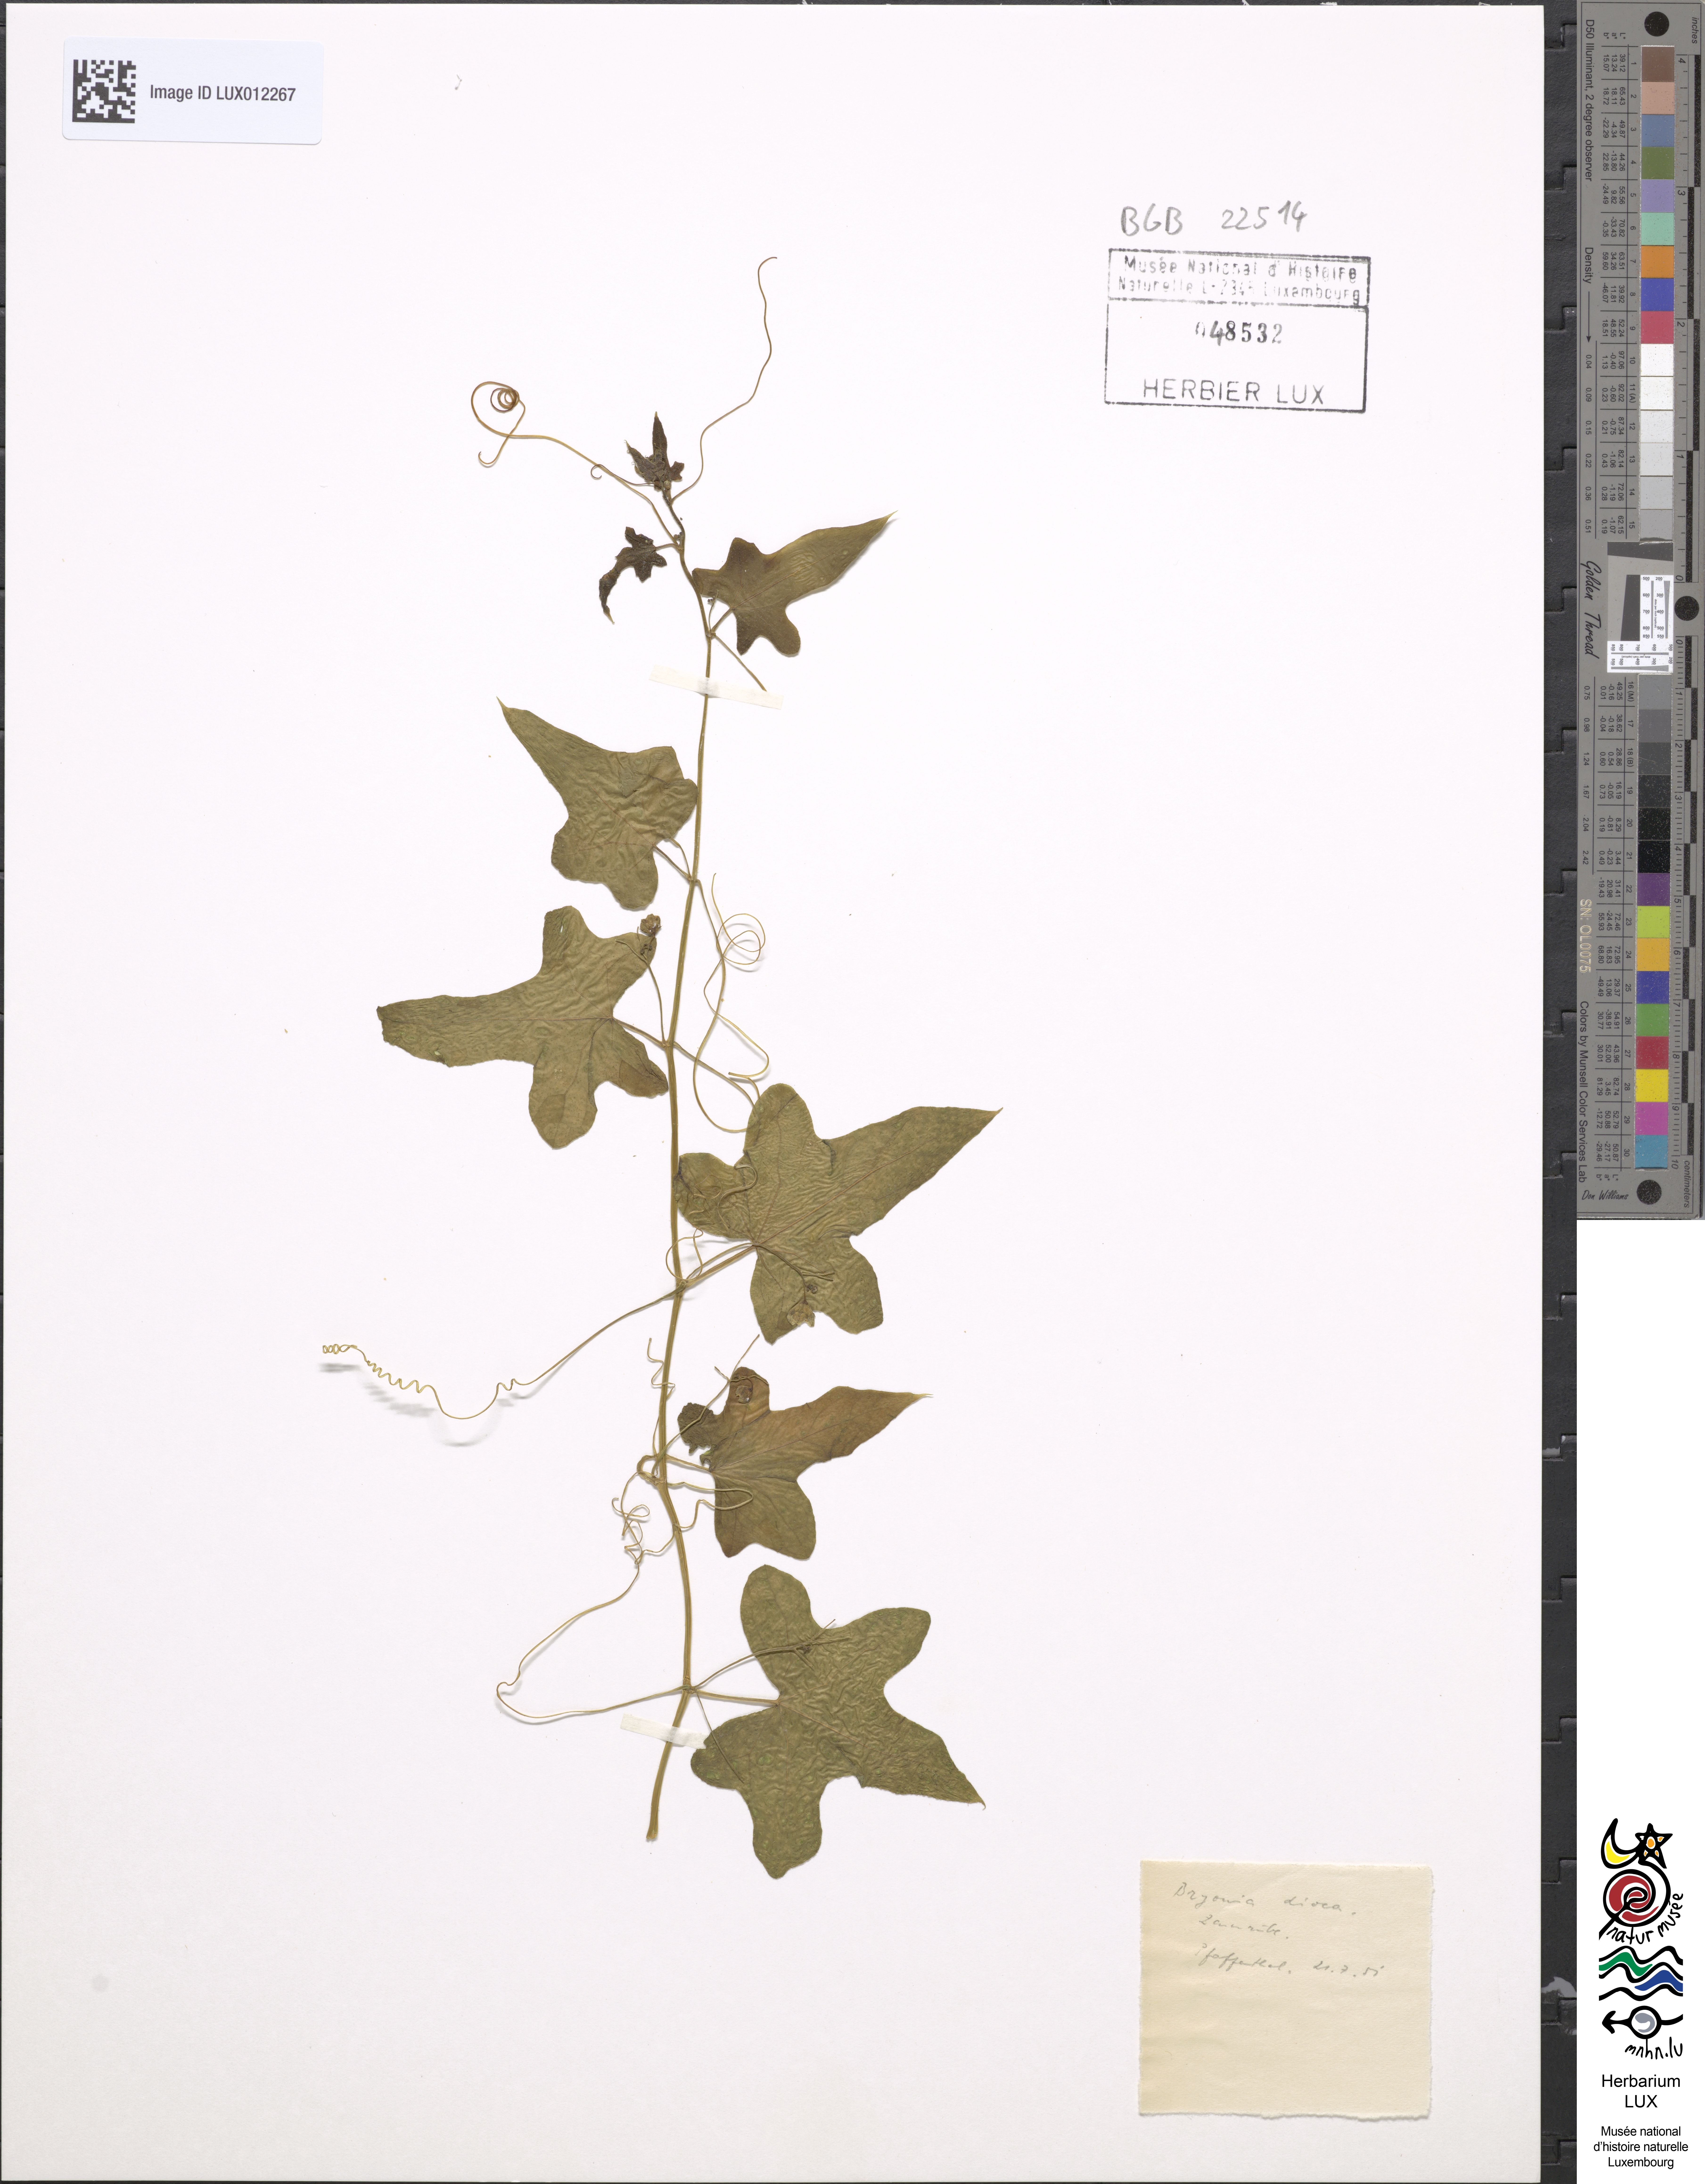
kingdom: Plantae
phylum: Tracheophyta
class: Magnoliopsida
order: Cucurbitales
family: Cucurbitaceae
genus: Bryonia
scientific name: Bryonia dioica
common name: White bryony
